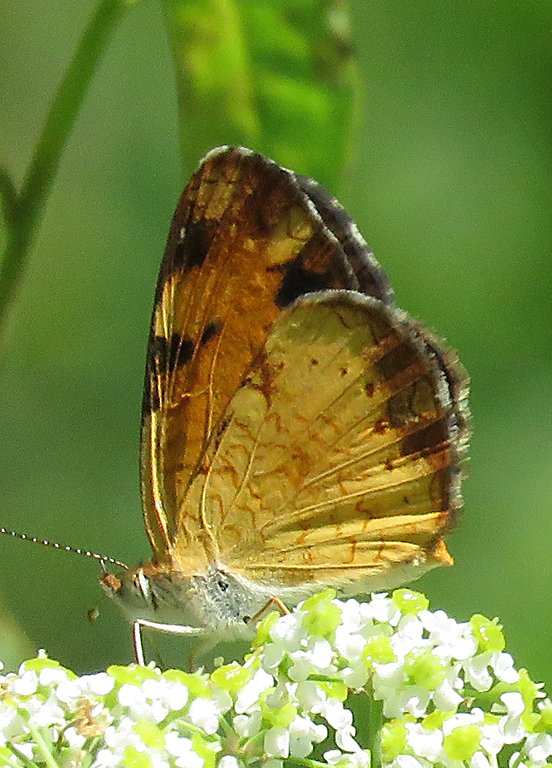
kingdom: Animalia
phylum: Arthropoda
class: Insecta
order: Lepidoptera
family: Nymphalidae
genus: Phyciodes
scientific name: Phyciodes
